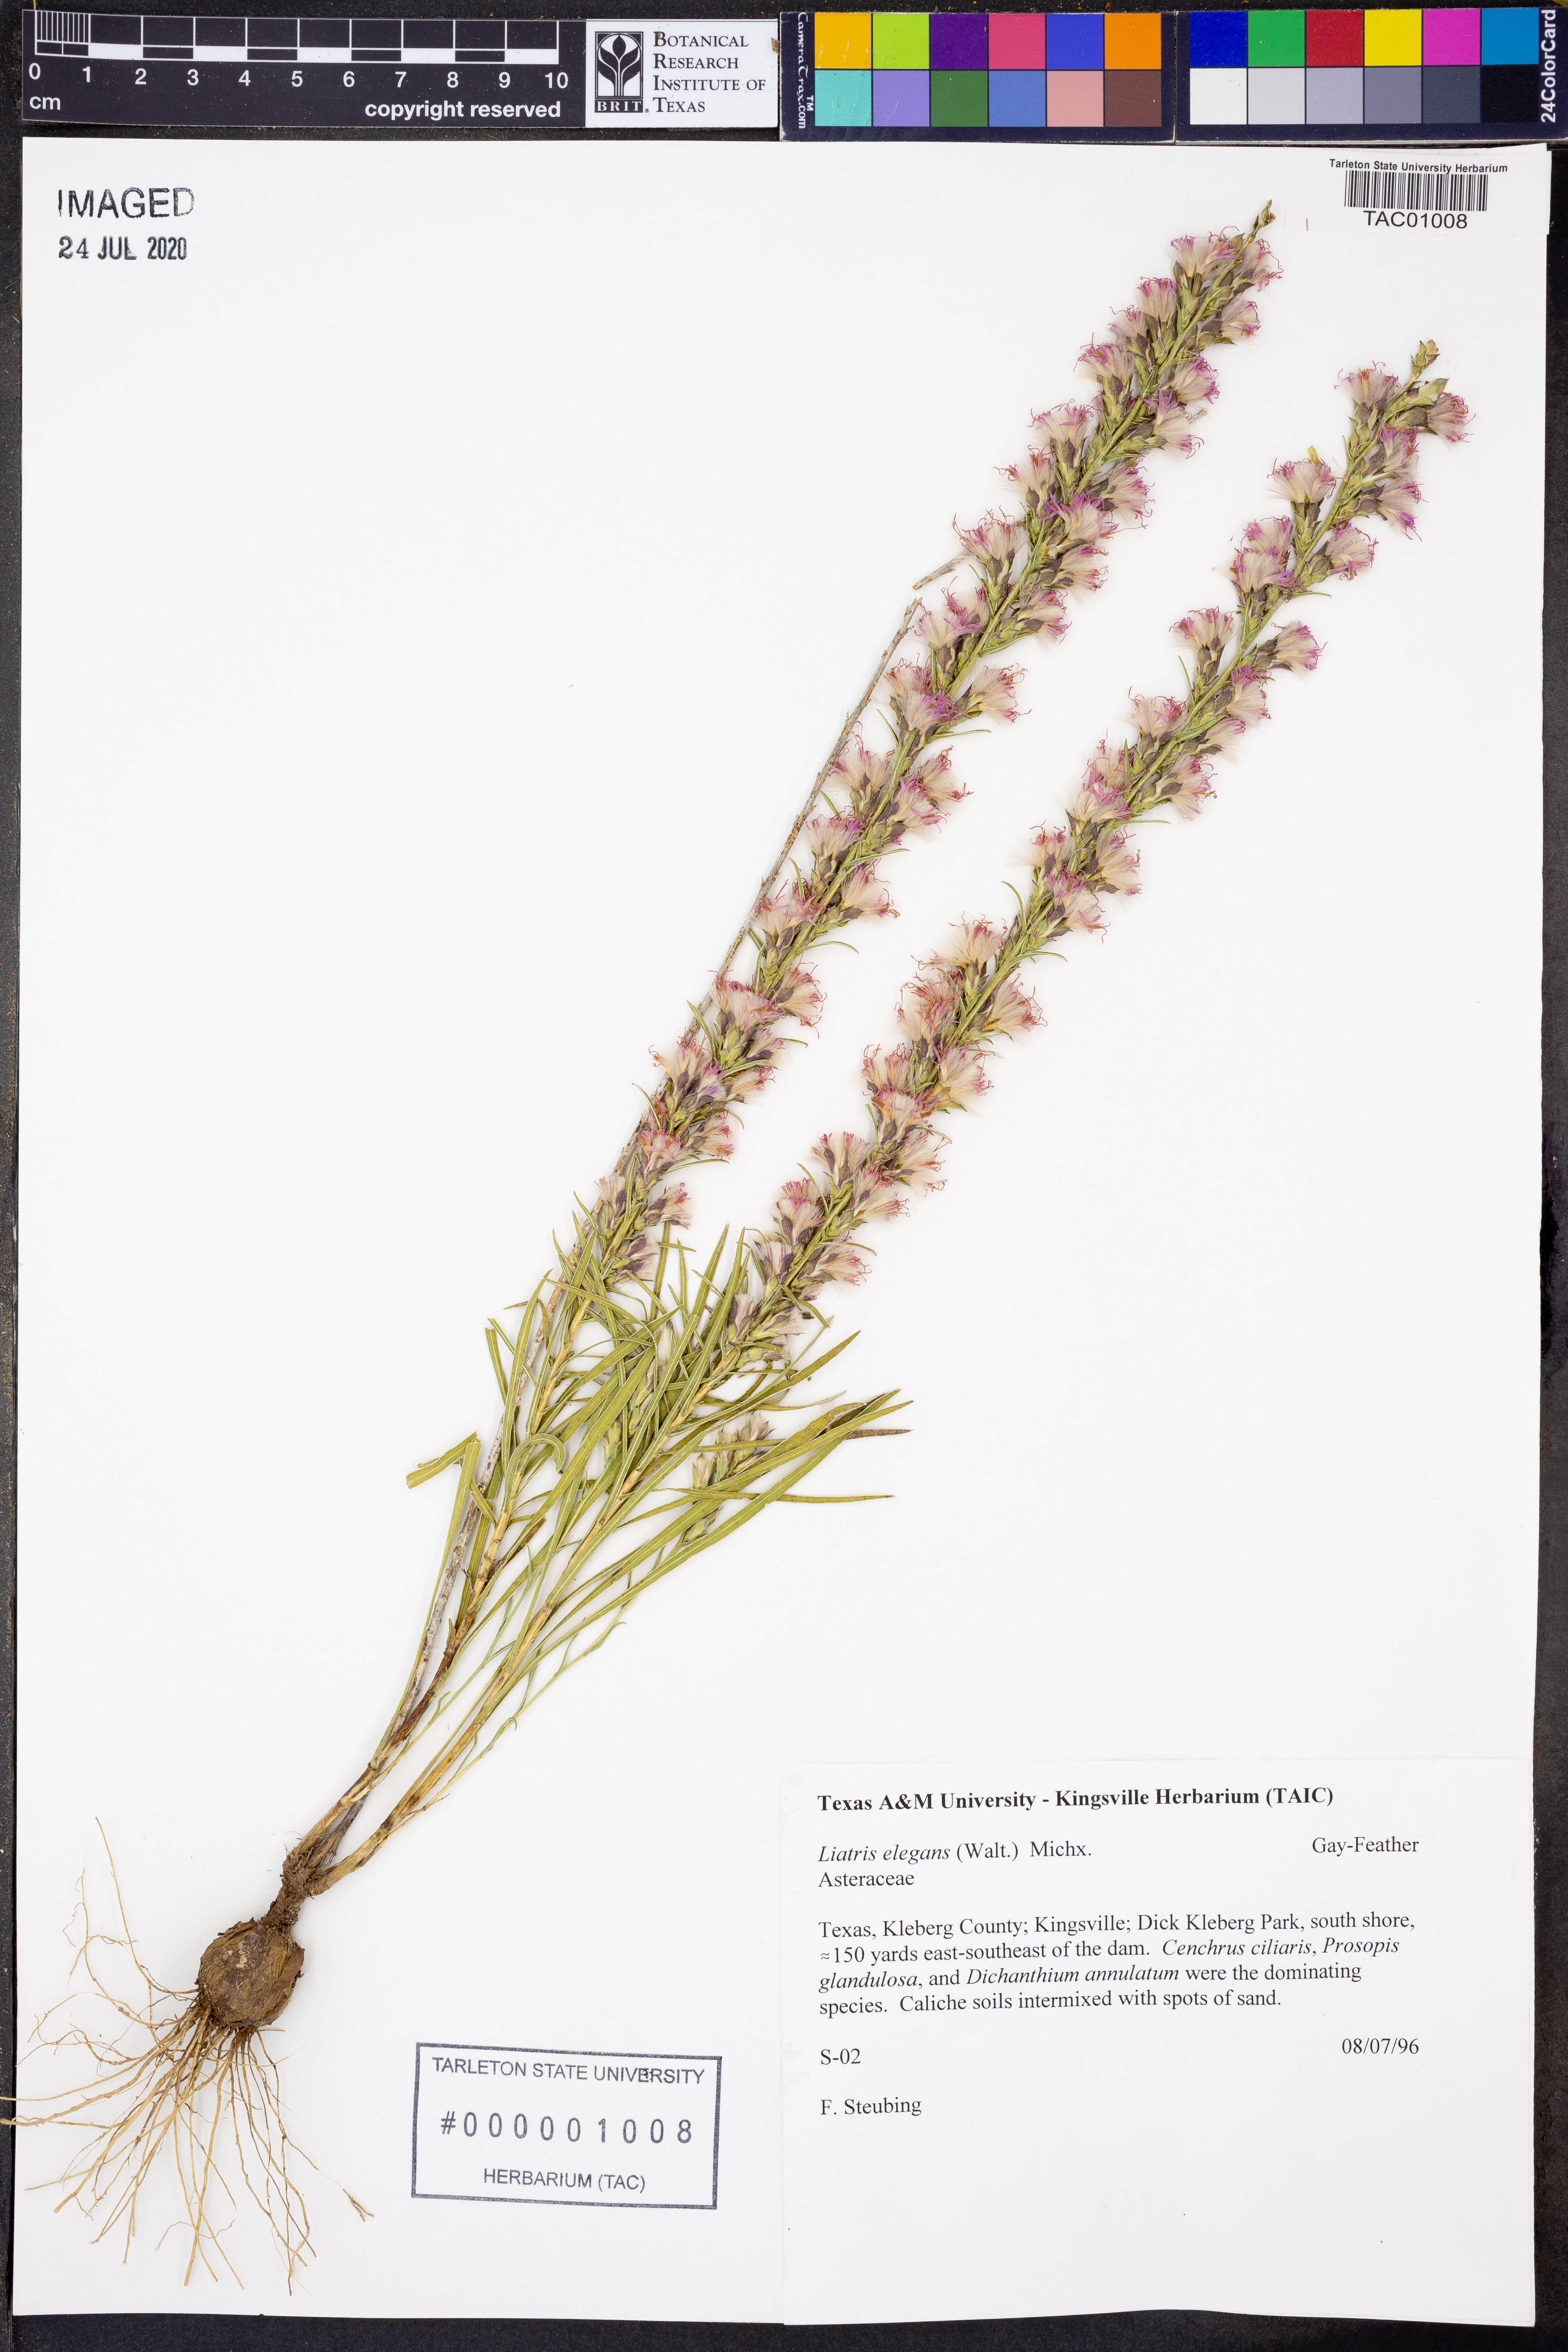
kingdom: Plantae
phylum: Tracheophyta
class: Magnoliopsida
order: Asterales
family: Asteraceae
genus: Liatris
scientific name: Liatris elegans
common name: Pinkscale gayfeather
